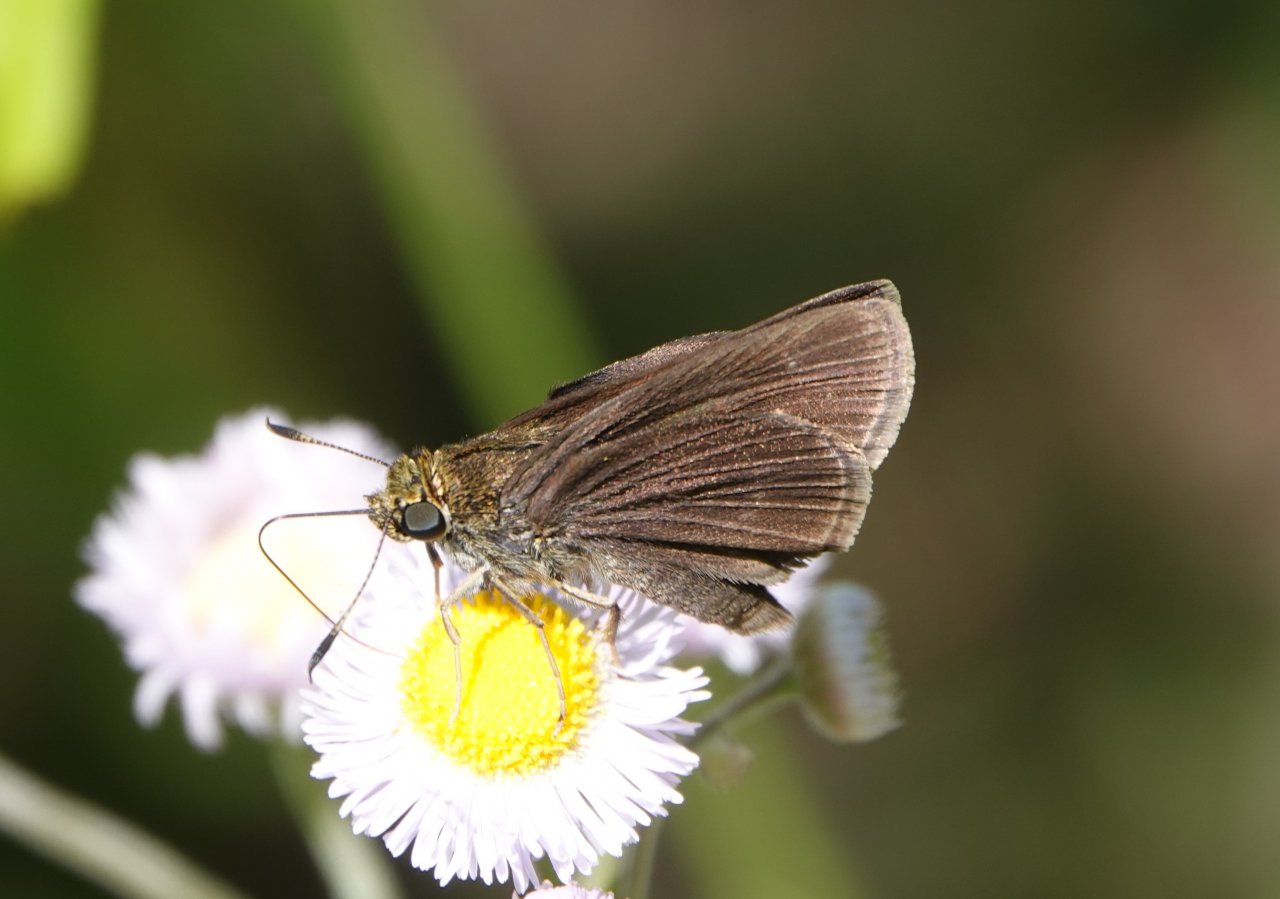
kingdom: Animalia
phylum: Arthropoda
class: Insecta
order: Lepidoptera
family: Hesperiidae
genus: Euphyes
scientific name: Euphyes vestris
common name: Dun Skipper
